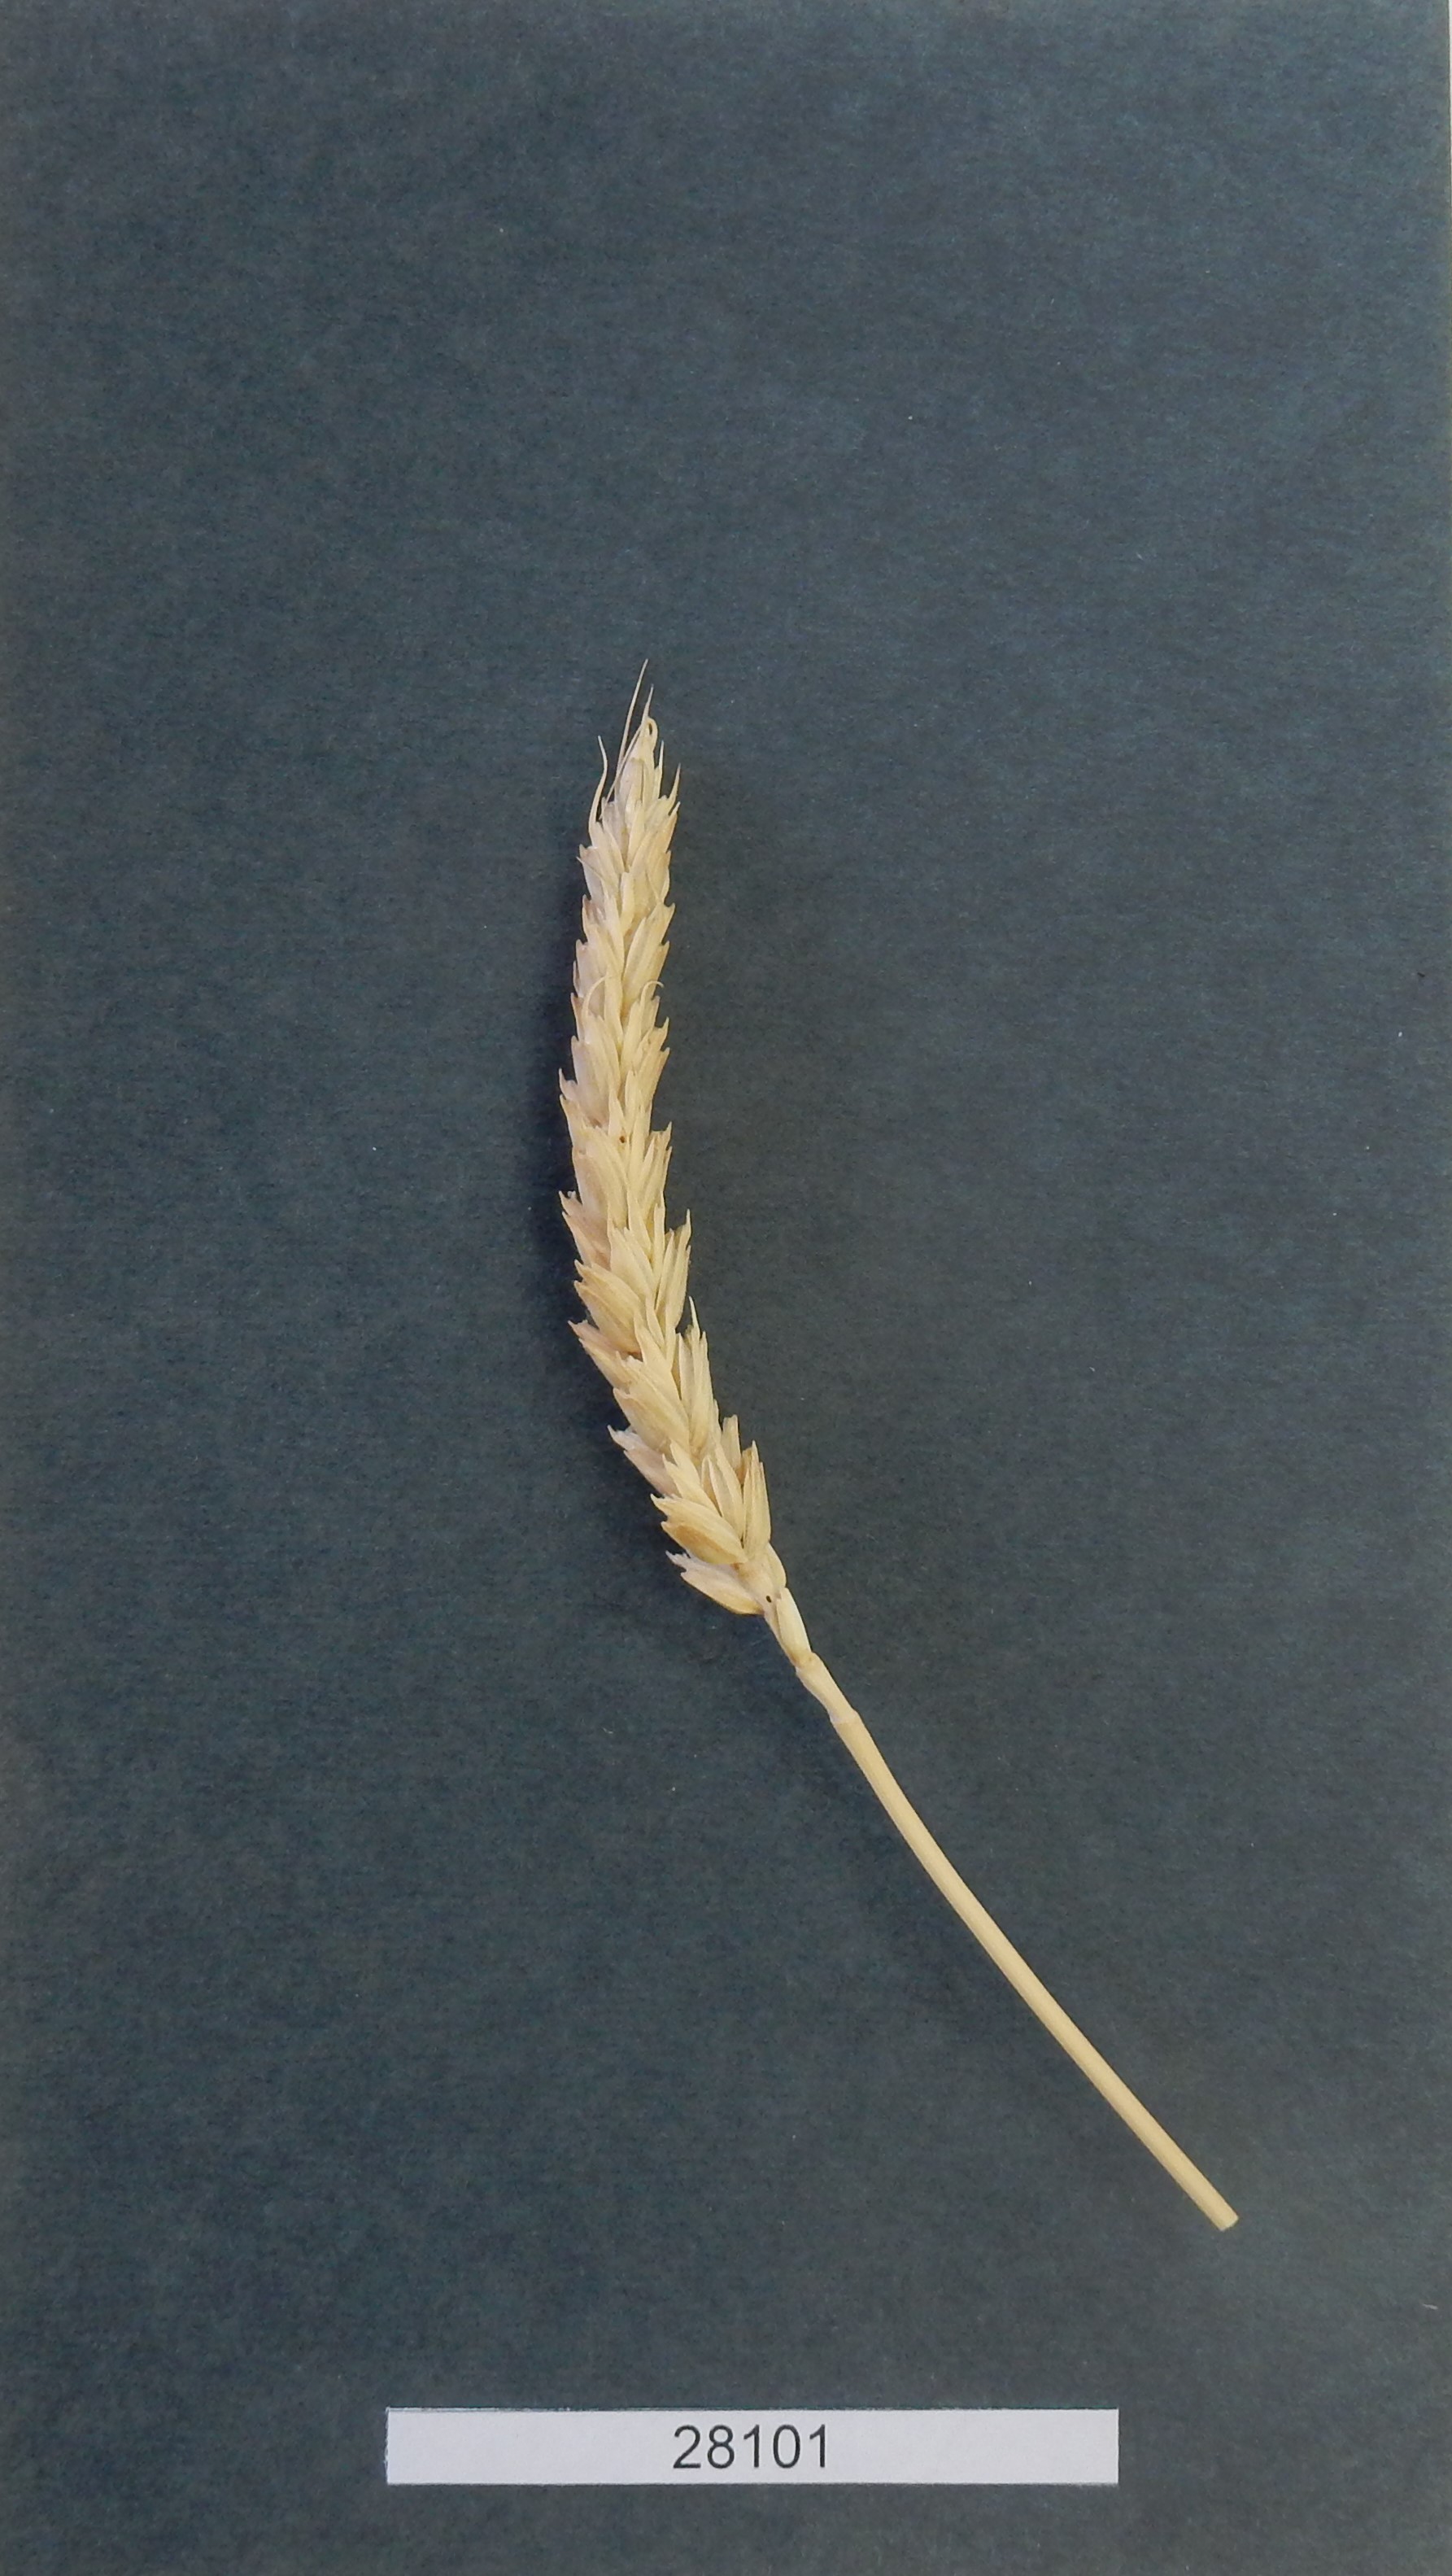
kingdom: Plantae
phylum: Tracheophyta
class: Liliopsida
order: Poales
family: Poaceae
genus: Triticum
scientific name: Triticum aestivum
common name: Common wheat
